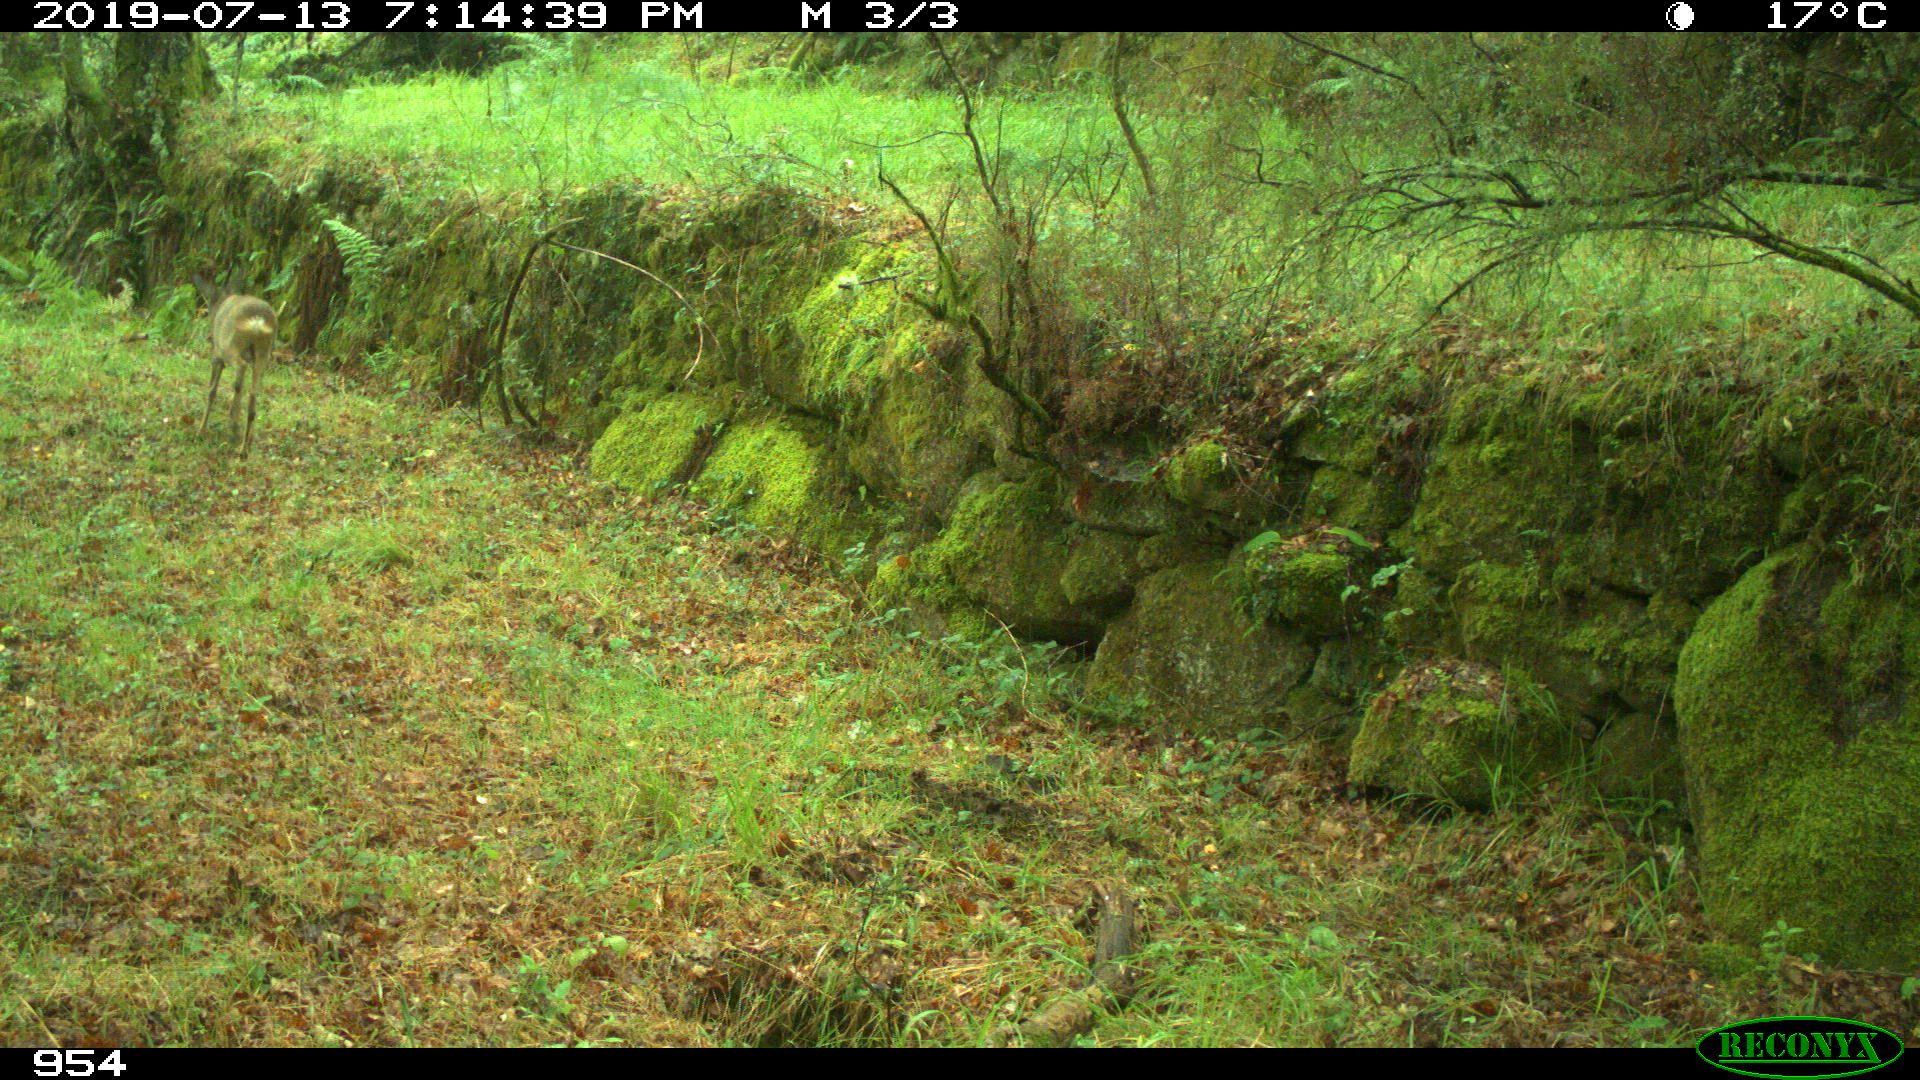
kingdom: Animalia
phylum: Chordata
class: Mammalia
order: Artiodactyla
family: Cervidae
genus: Capreolus
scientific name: Capreolus capreolus
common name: Western roe deer
